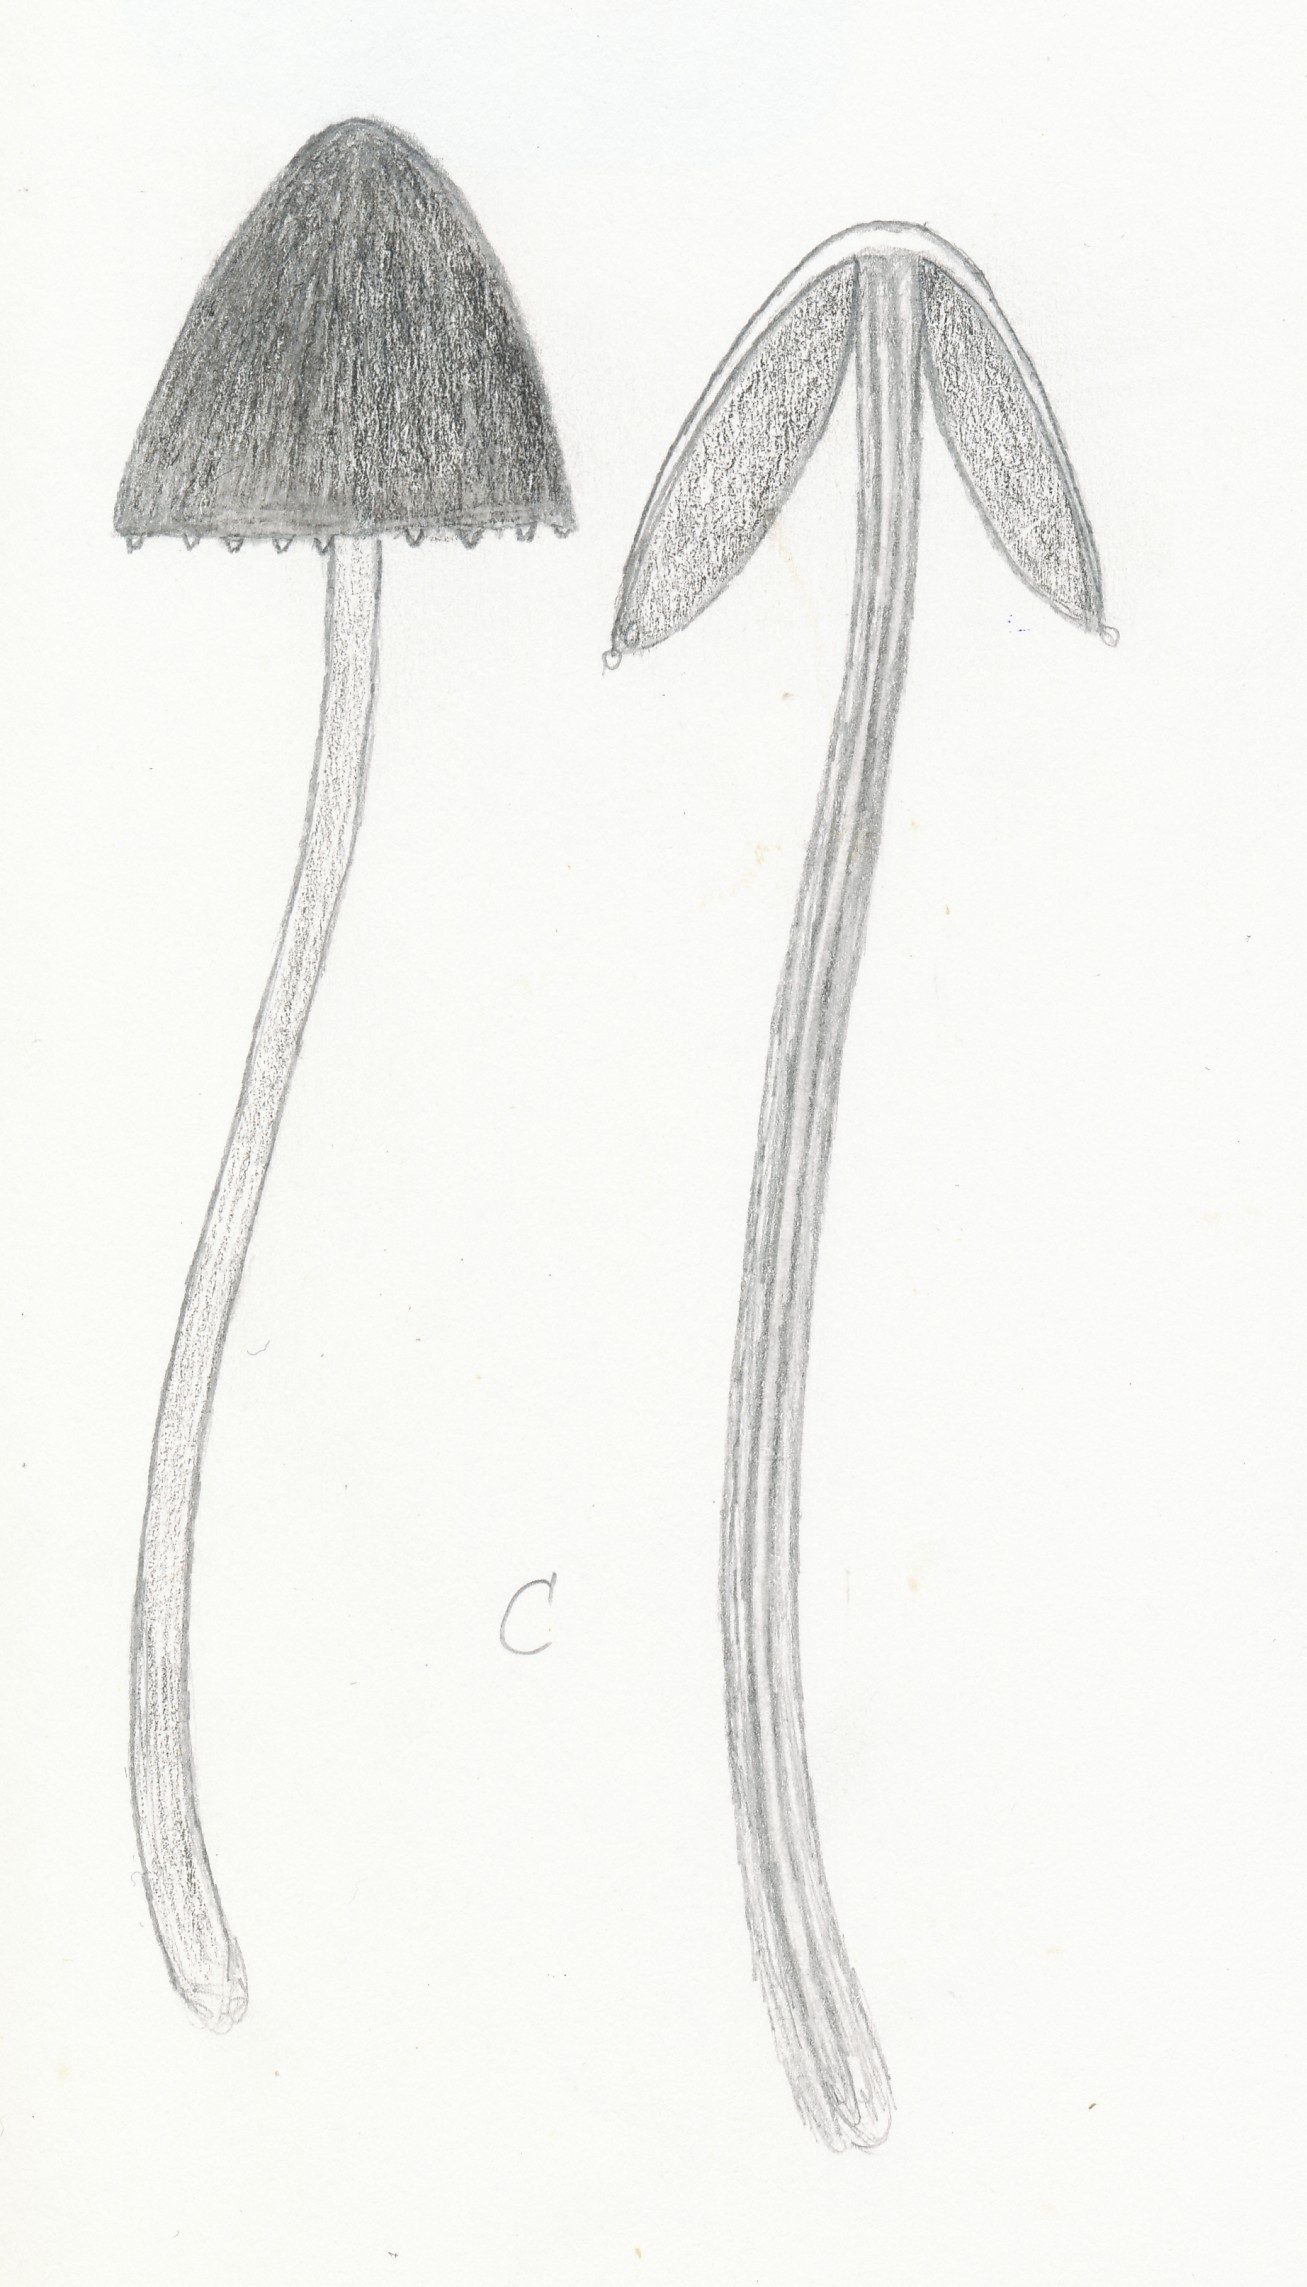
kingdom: Fungi
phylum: Basidiomycota
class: Agaricomycetes
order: Agaricales
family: Bolbitiaceae
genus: Panaeolus
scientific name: Panaeolus papilionaceus
